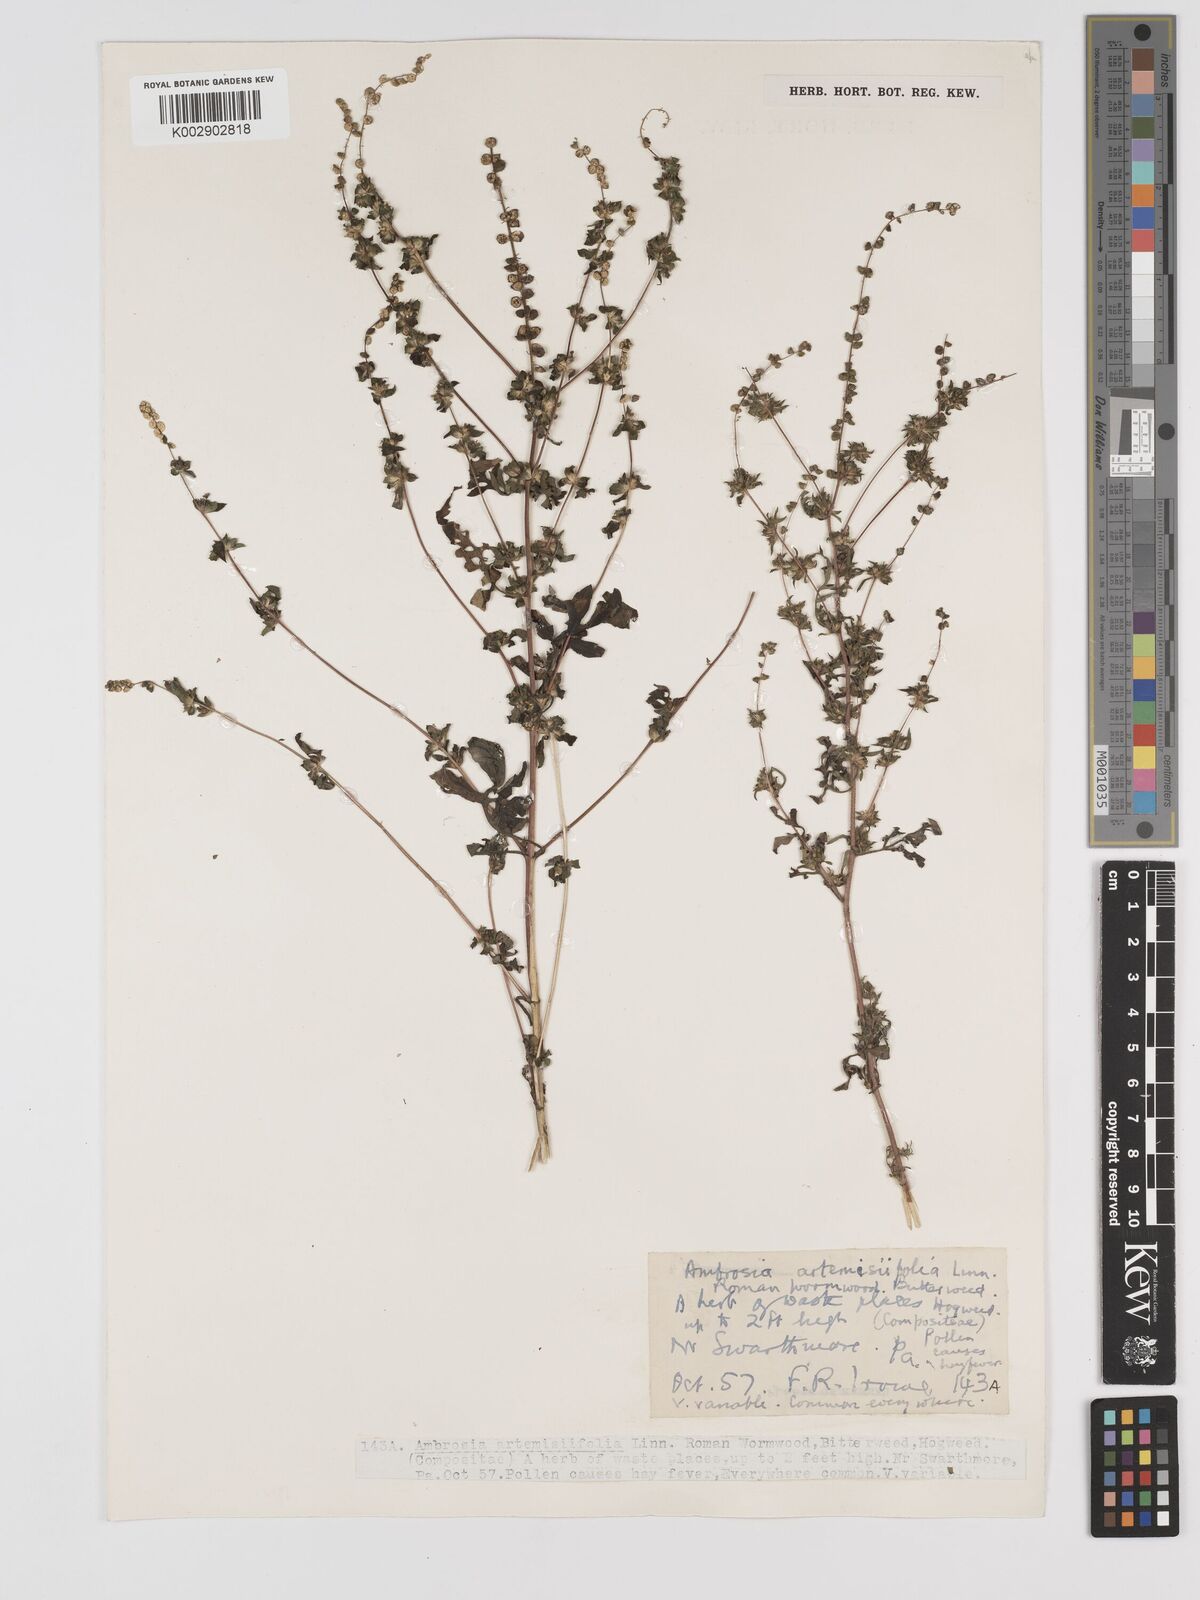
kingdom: Plantae
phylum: Tracheophyta
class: Magnoliopsida
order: Asterales
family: Asteraceae
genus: Ambrosia
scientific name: Ambrosia artemisiifolia
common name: Annual ragweed
